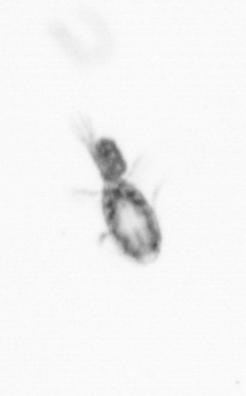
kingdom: Animalia
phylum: Arthropoda
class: Copepoda
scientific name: Copepoda
